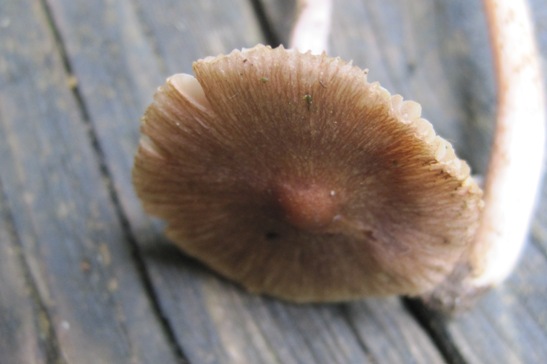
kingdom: Fungi
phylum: Basidiomycota
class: Agaricomycetes
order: Agaricales
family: Inocybaceae
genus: Inocybe
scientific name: Inocybe pusio
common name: violetfodet trævlhat
